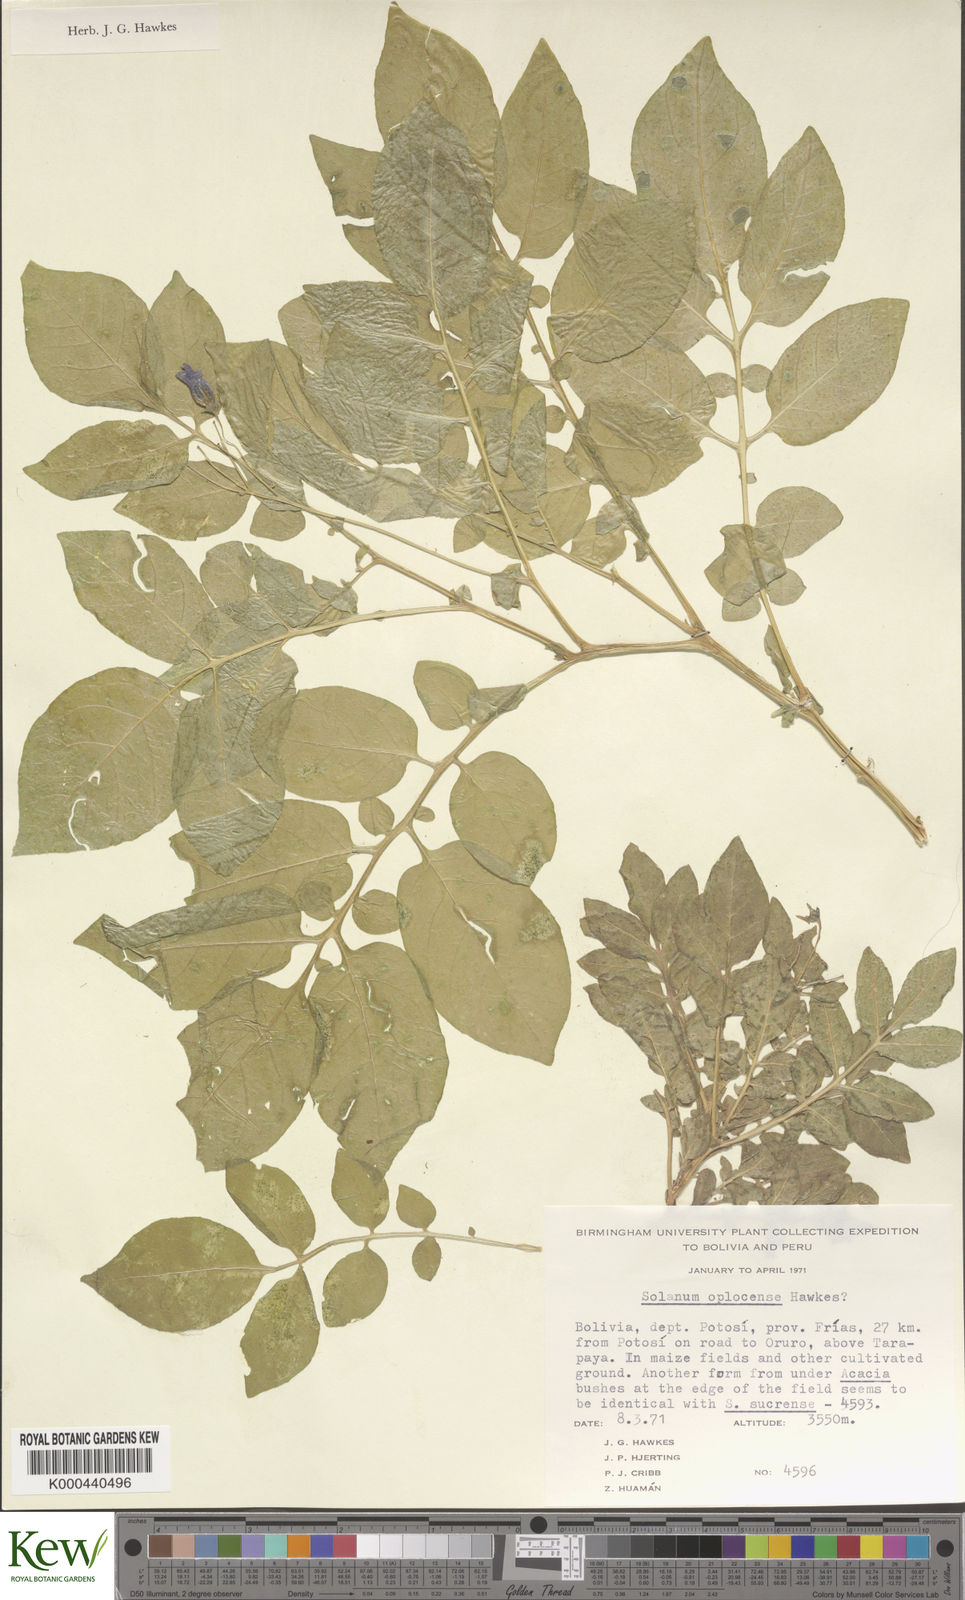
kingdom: Plantae
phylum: Tracheophyta
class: Magnoliopsida
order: Solanales
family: Solanaceae
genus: Solanum
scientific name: Solanum brevicaule
